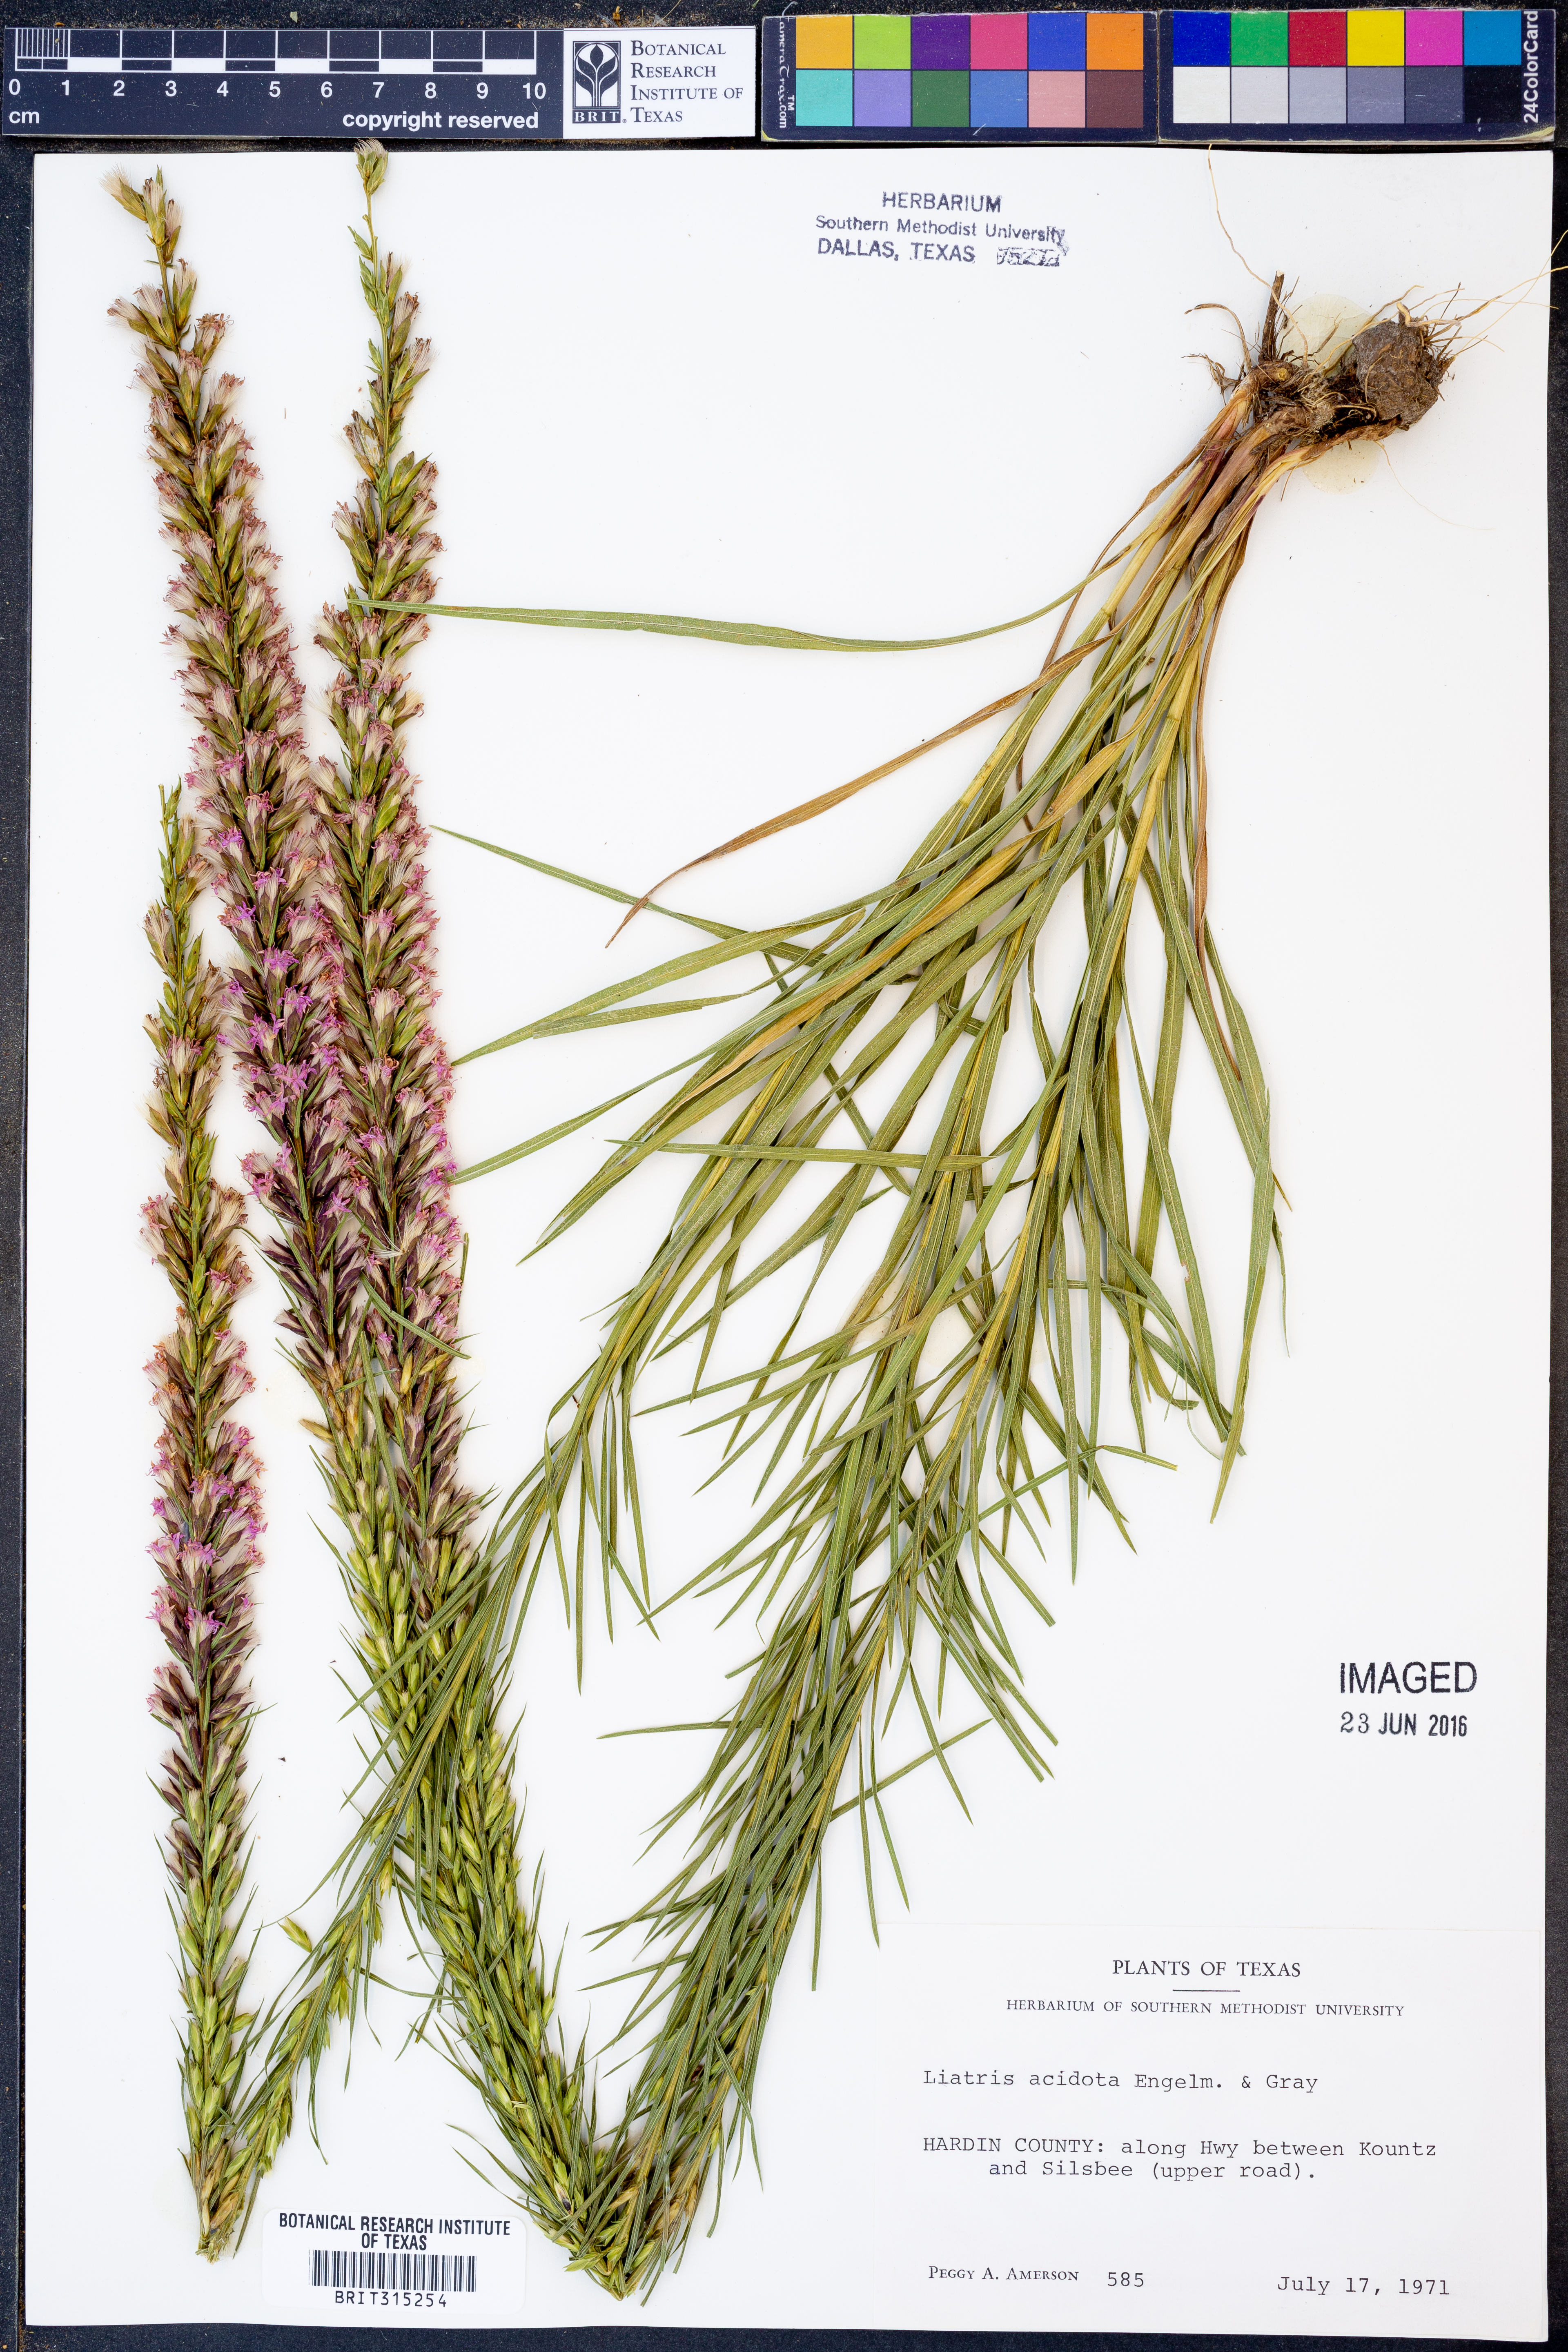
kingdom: Plantae
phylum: Tracheophyta
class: Magnoliopsida
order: Asterales
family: Asteraceae
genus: Liatris
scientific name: Liatris acidota
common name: Gulf coast gayfeather
